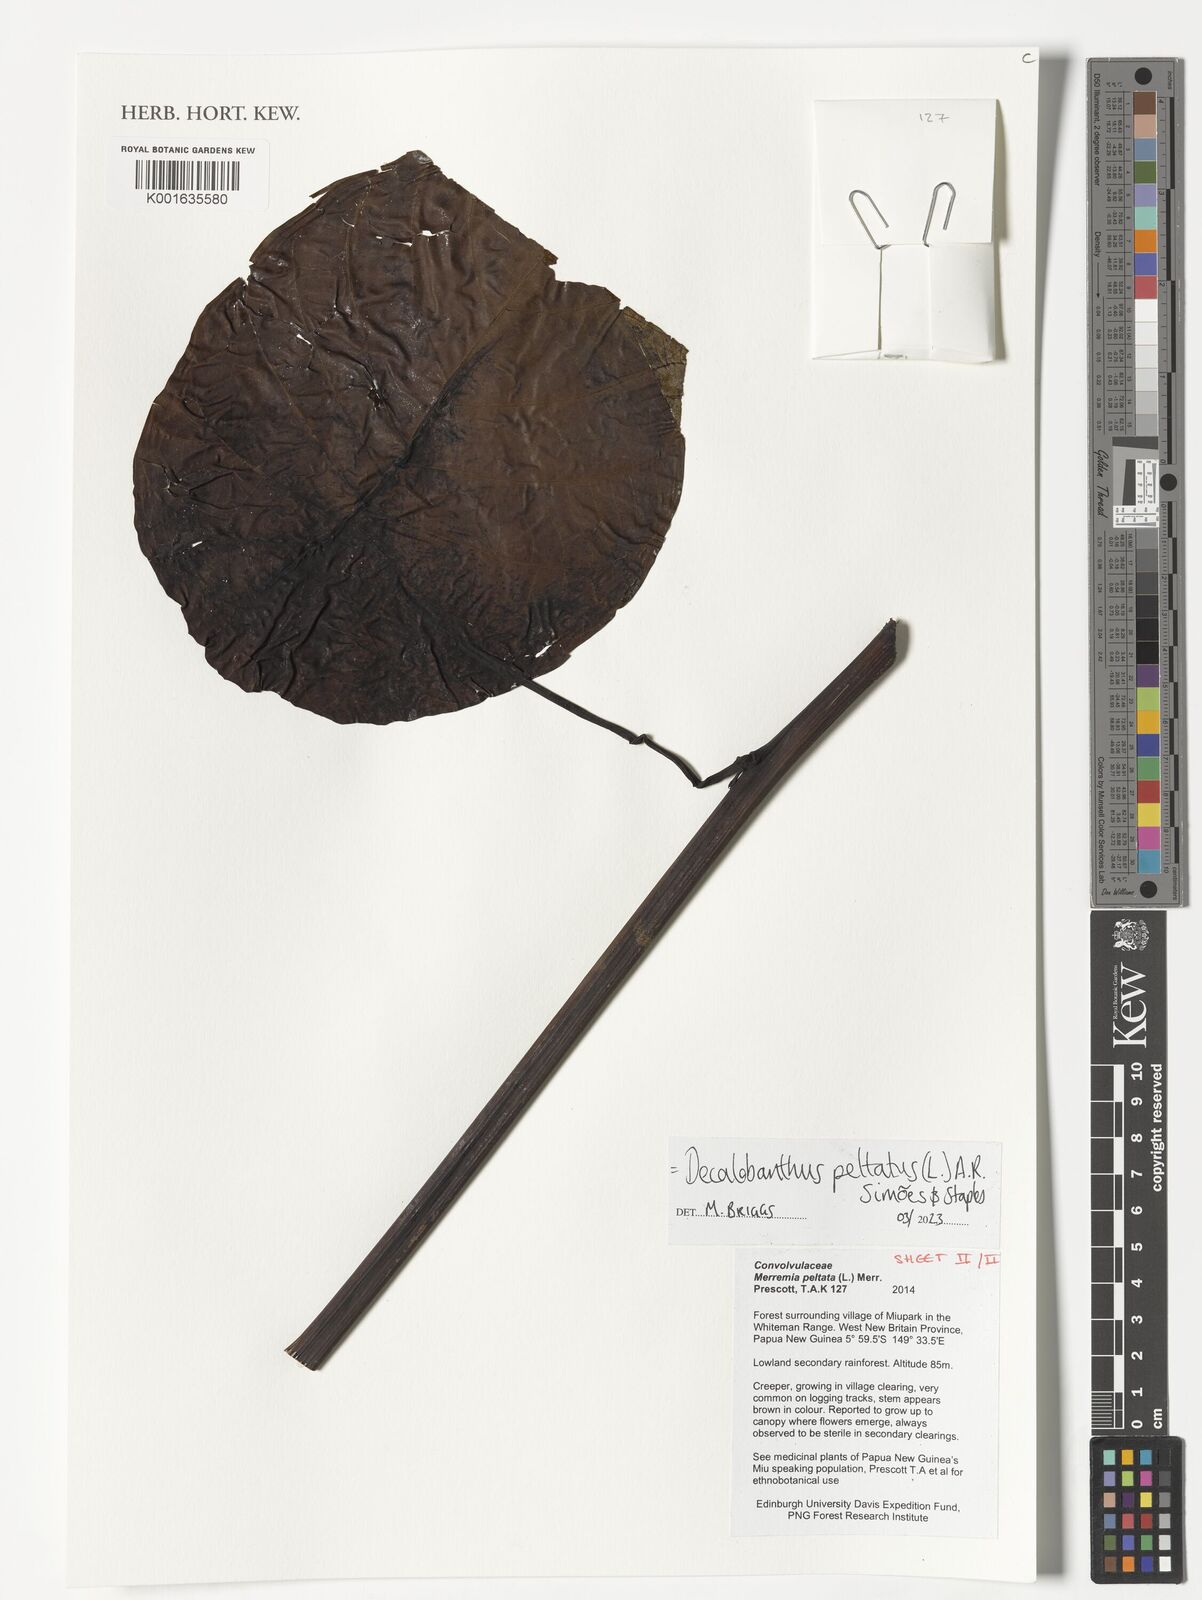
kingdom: Plantae
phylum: Tracheophyta
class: Magnoliopsida
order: Solanales
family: Convolvulaceae
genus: Decalobanthus
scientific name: Decalobanthus peltatus
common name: Merremia
